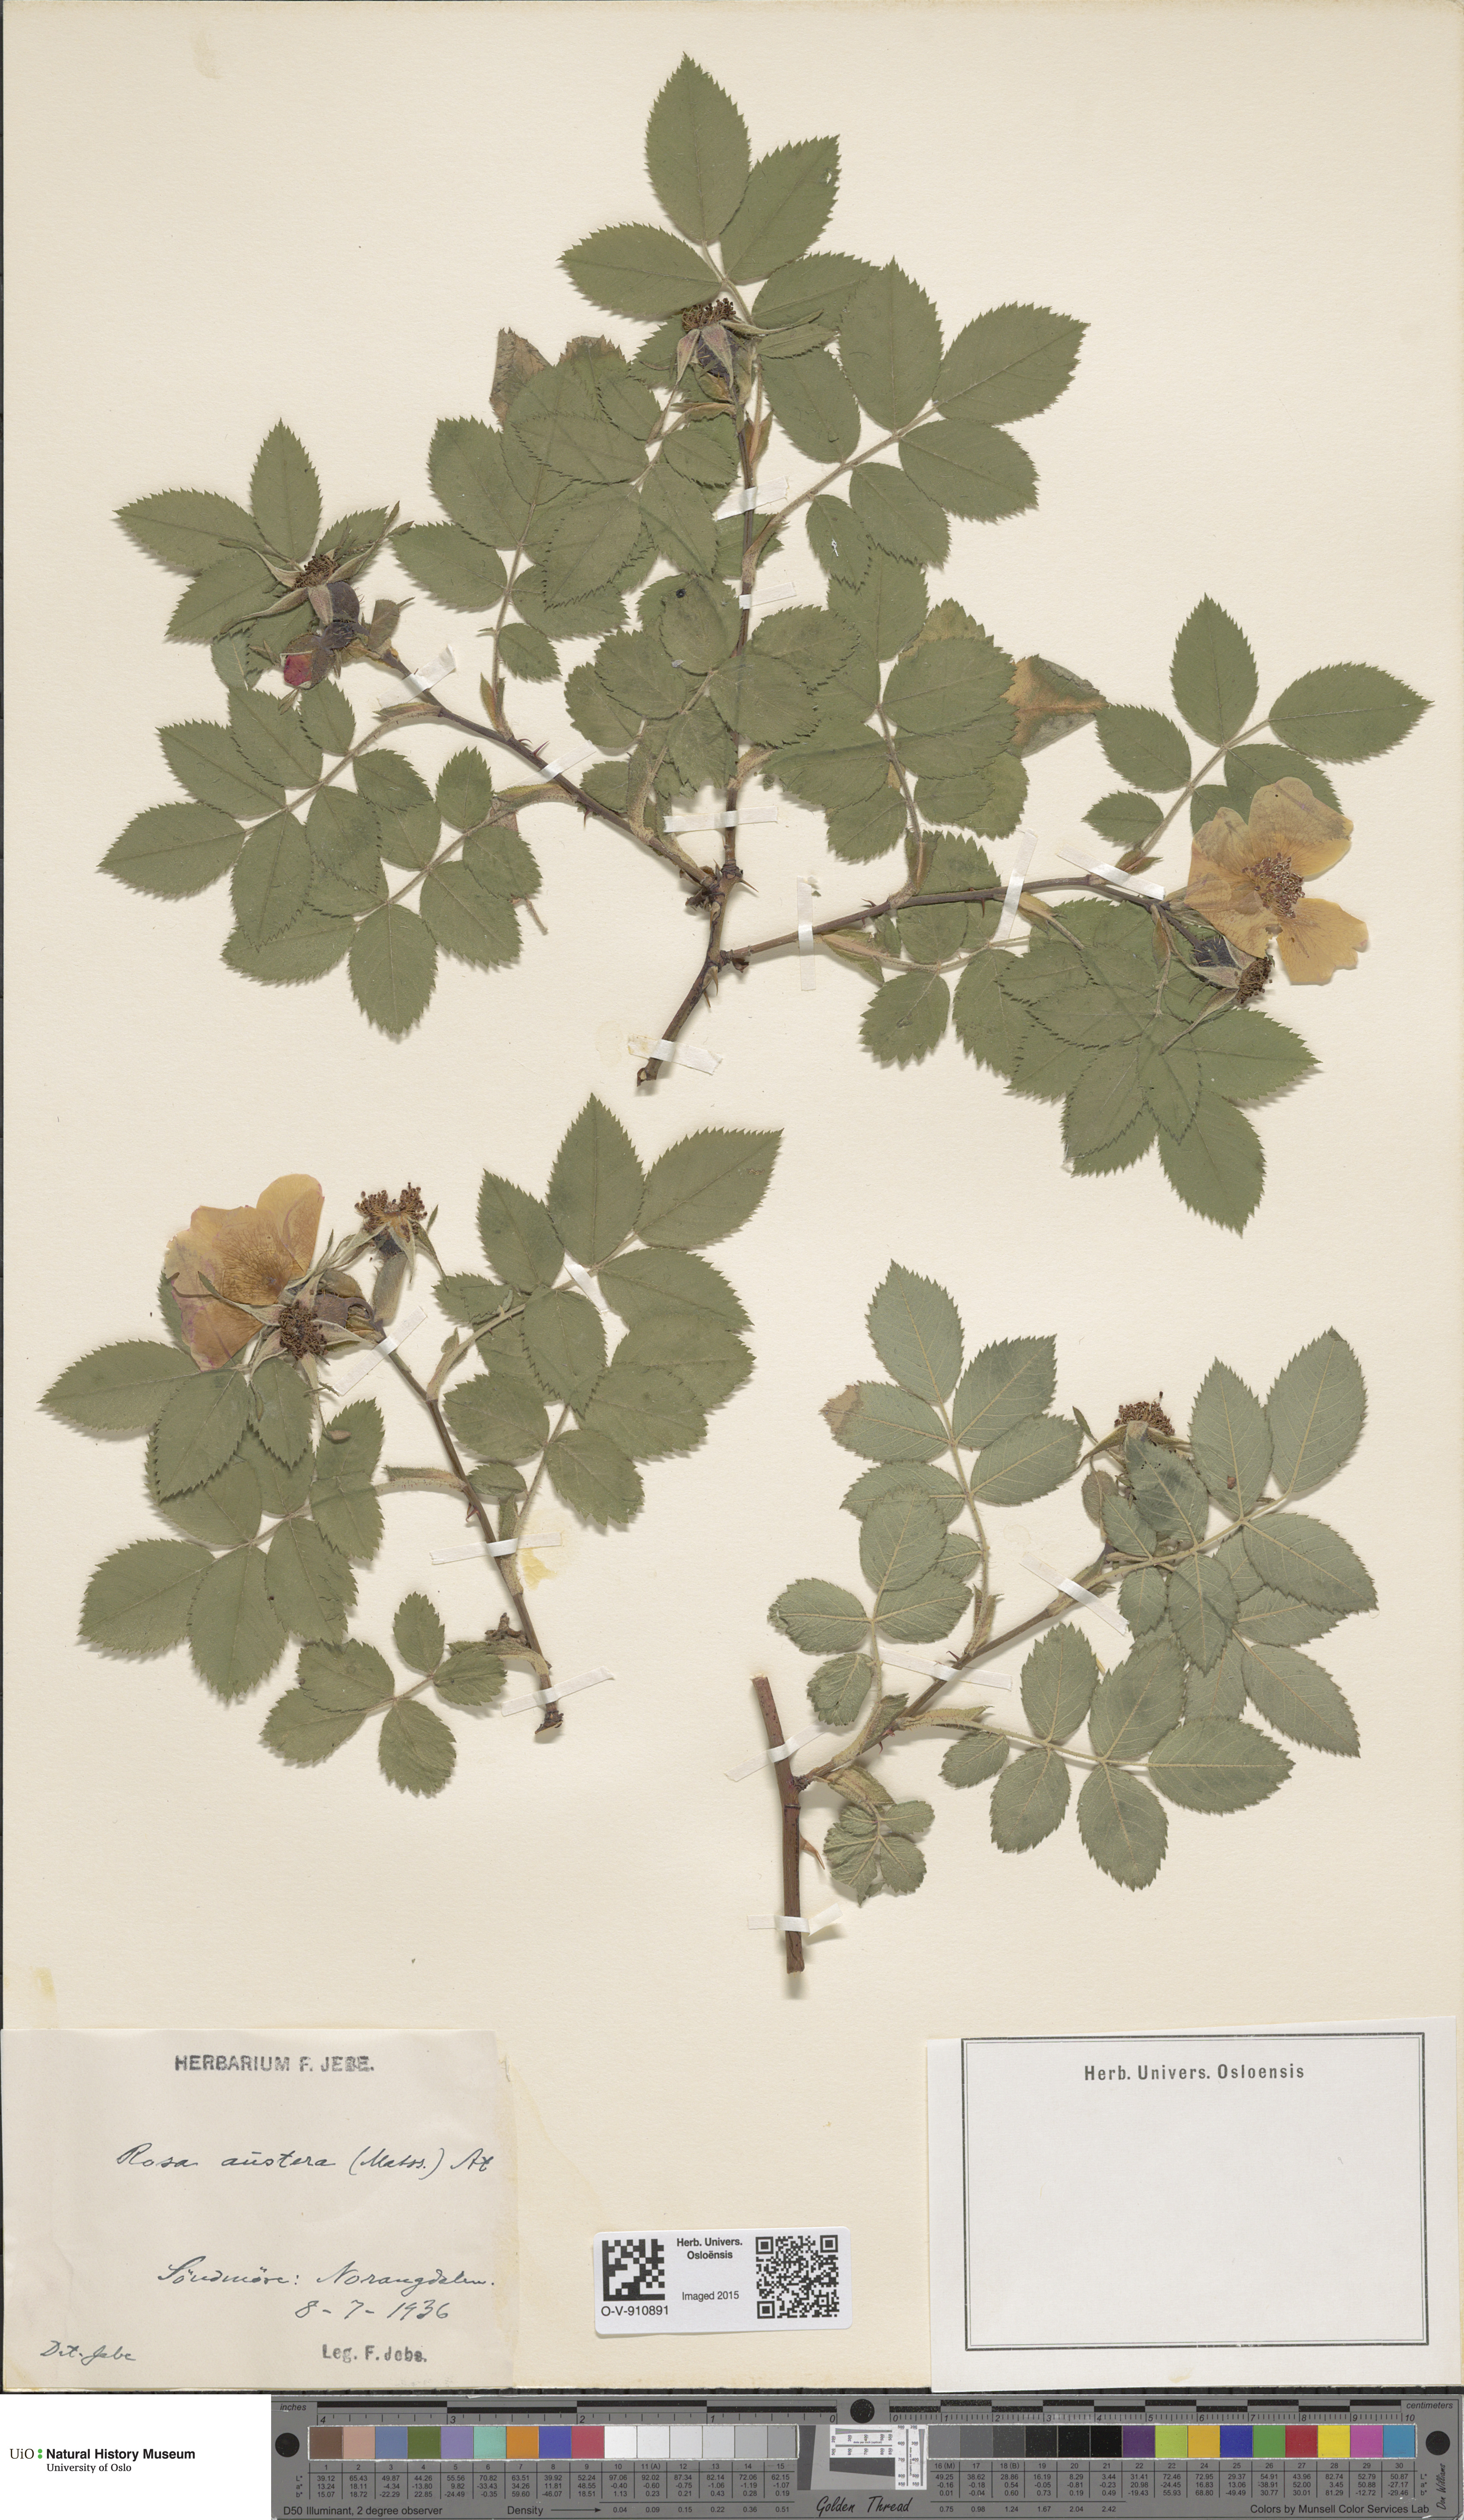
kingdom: Plantae
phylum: Tracheophyta
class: Magnoliopsida
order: Rosales
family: Rosaceae
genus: Rosa
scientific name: Rosa mollis
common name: Rose
